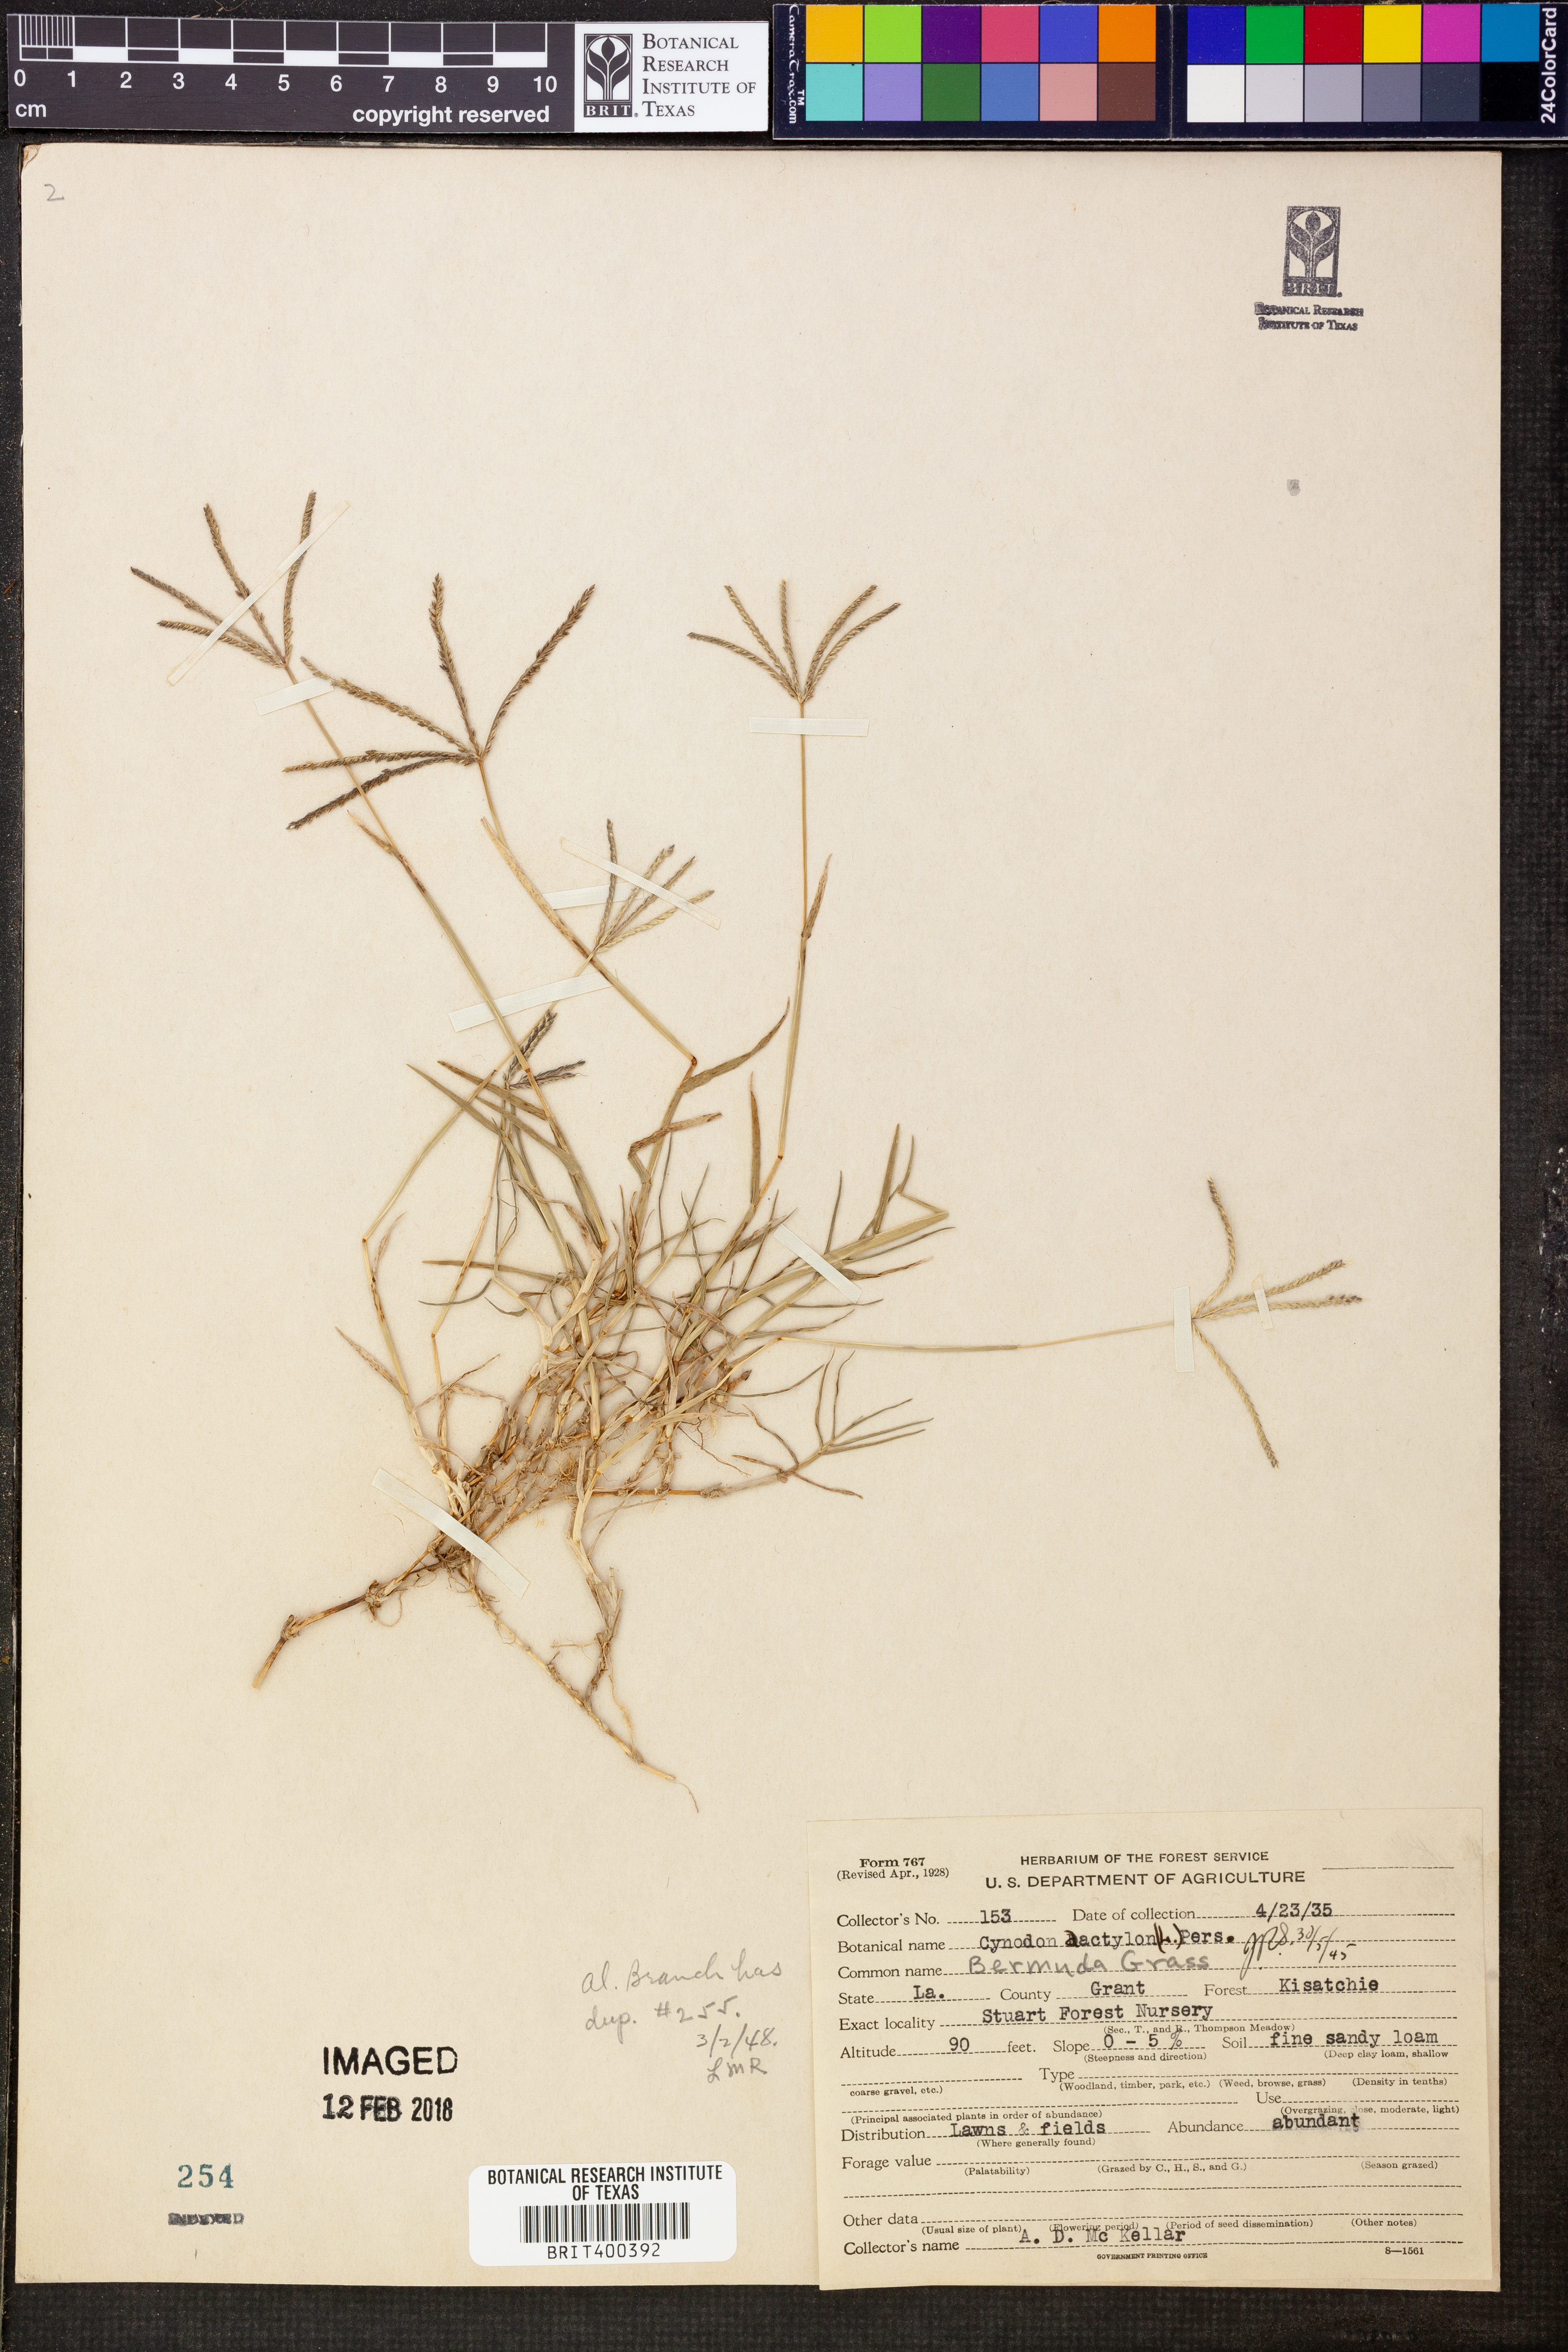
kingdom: Plantae
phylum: Tracheophyta
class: Liliopsida
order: Poales
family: Poaceae
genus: Cynodon
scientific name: Cynodon dactylon
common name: Bermuda grass
